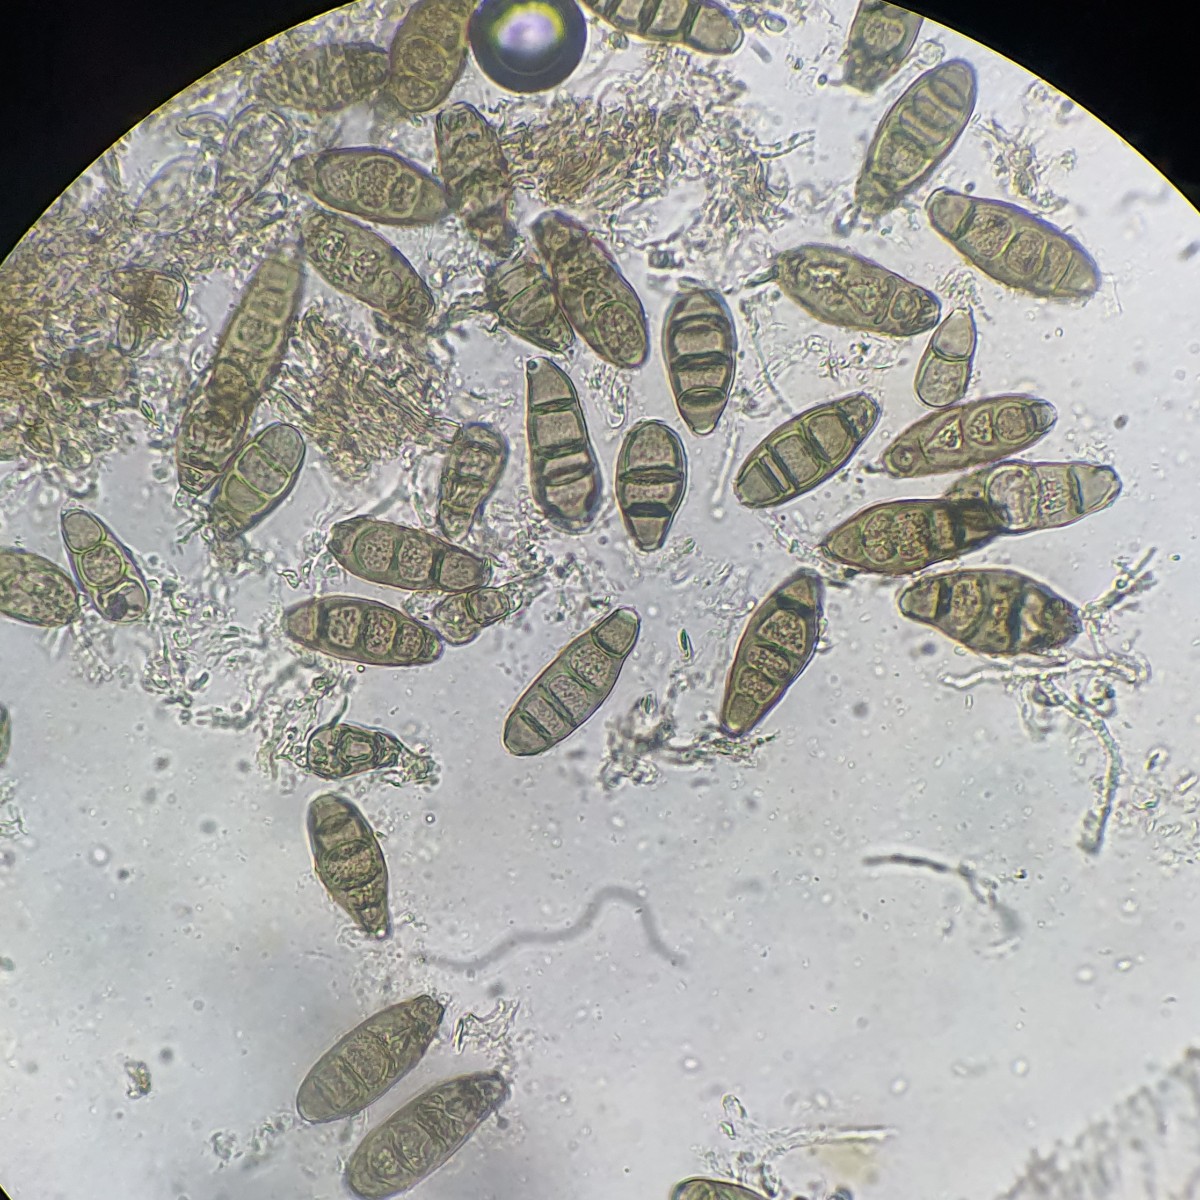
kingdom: Fungi
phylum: Ascomycota
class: Sordariomycetes
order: Diaporthales
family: Coryneaceae
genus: Coryneum
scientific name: Coryneum lanciforme
